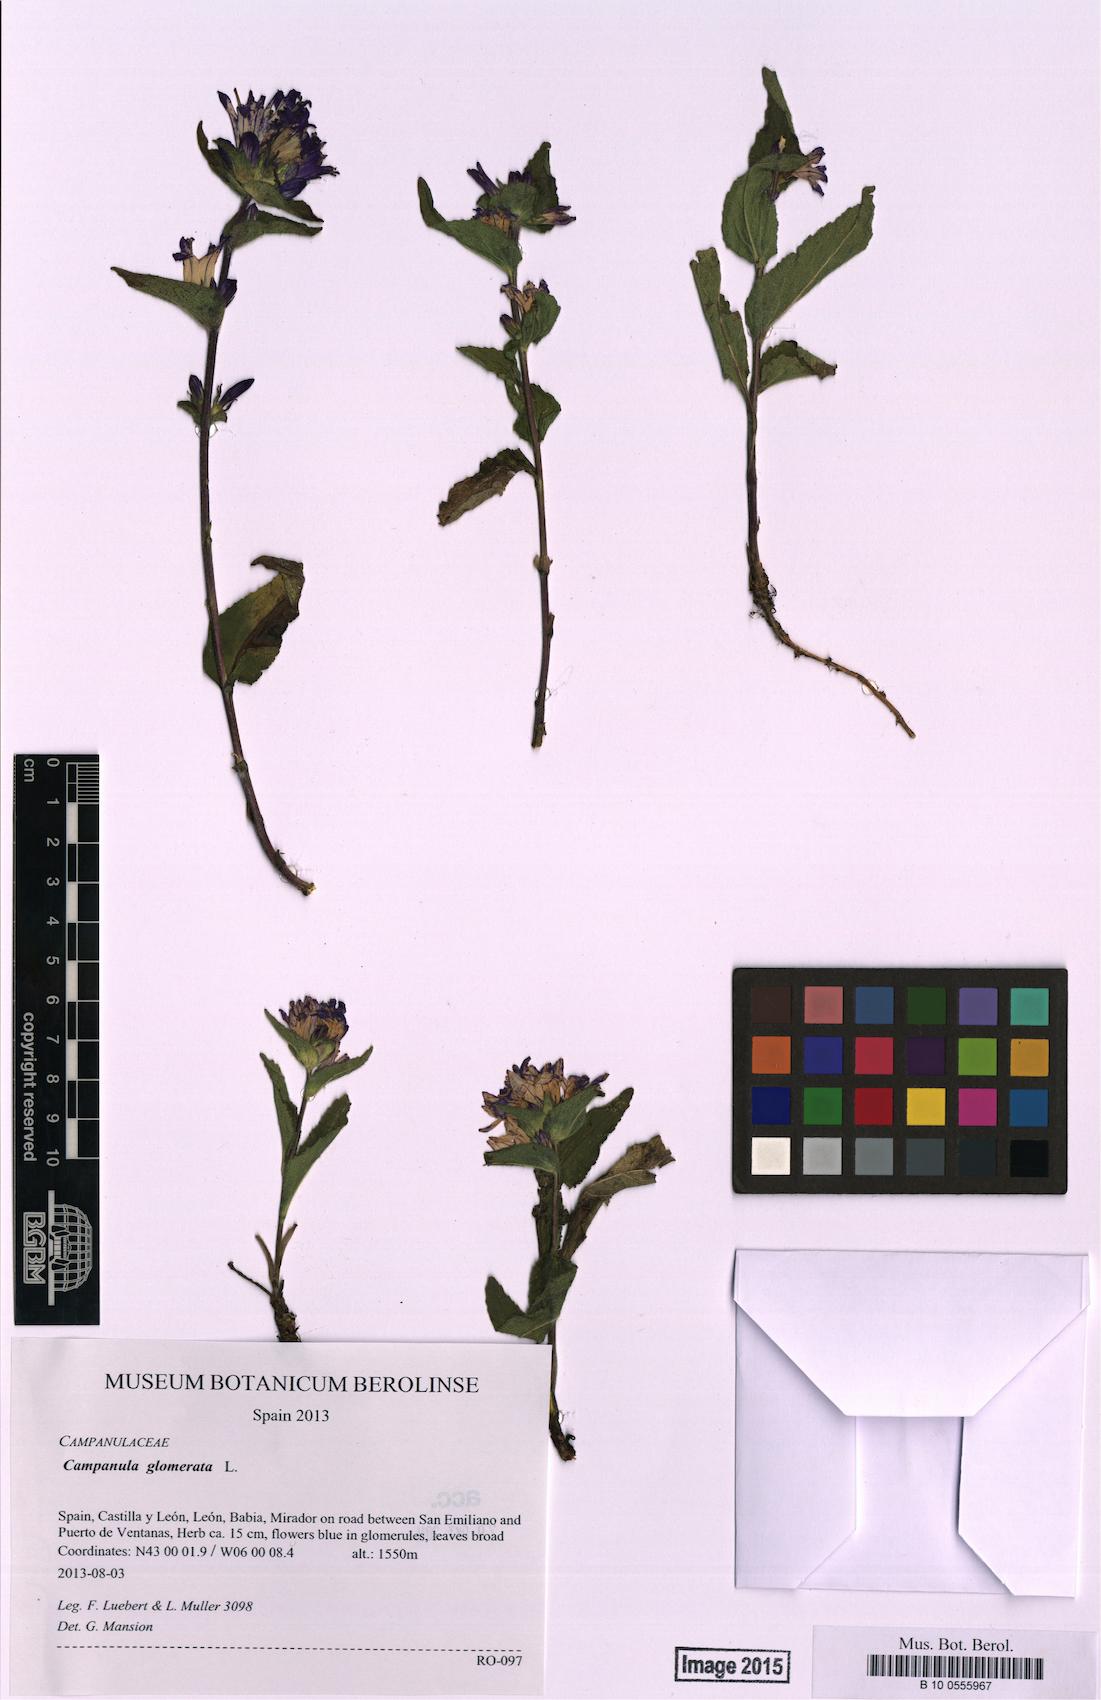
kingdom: Plantae
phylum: Tracheophyta
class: Magnoliopsida
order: Asterales
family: Campanulaceae
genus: Campanula
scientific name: Campanula glomerata
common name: Clustered bellflower
